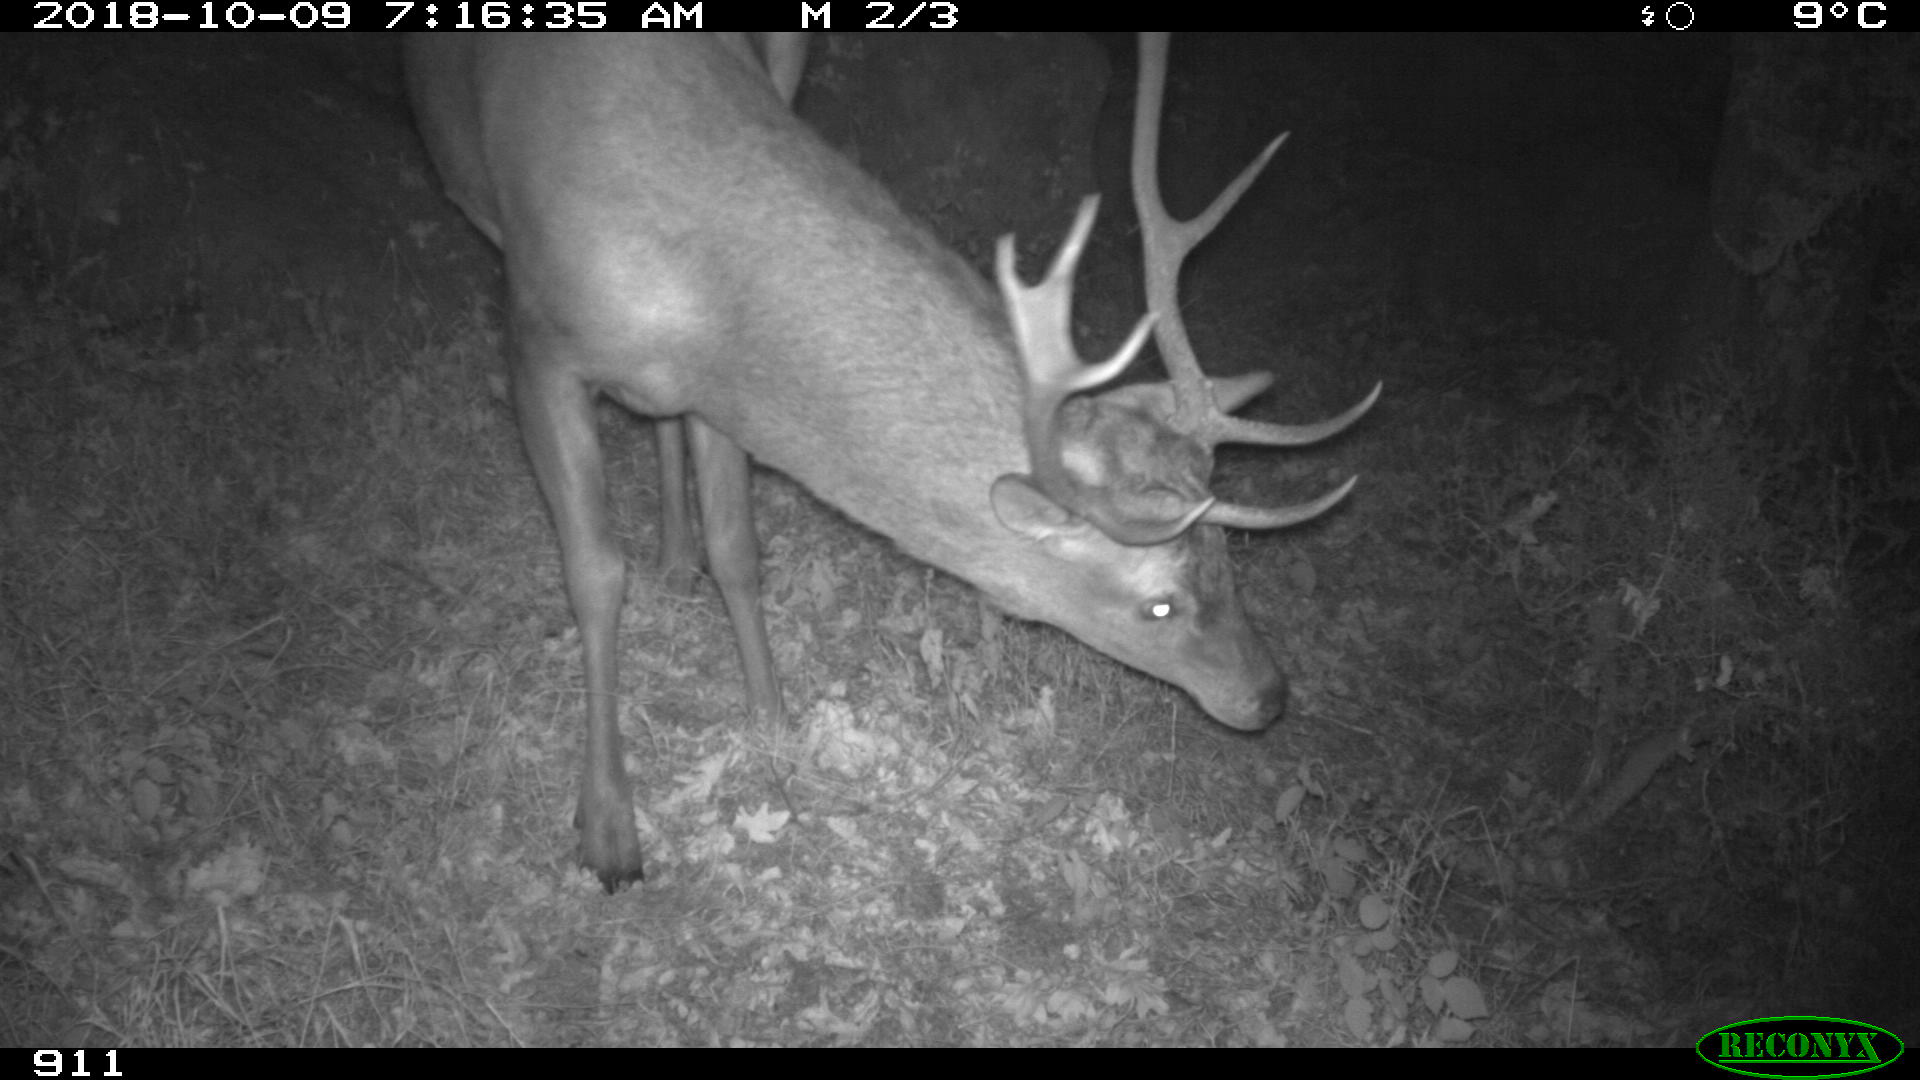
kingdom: Animalia
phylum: Chordata
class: Mammalia
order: Artiodactyla
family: Cervidae
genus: Cervus
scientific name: Cervus elaphus
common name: Red deer
